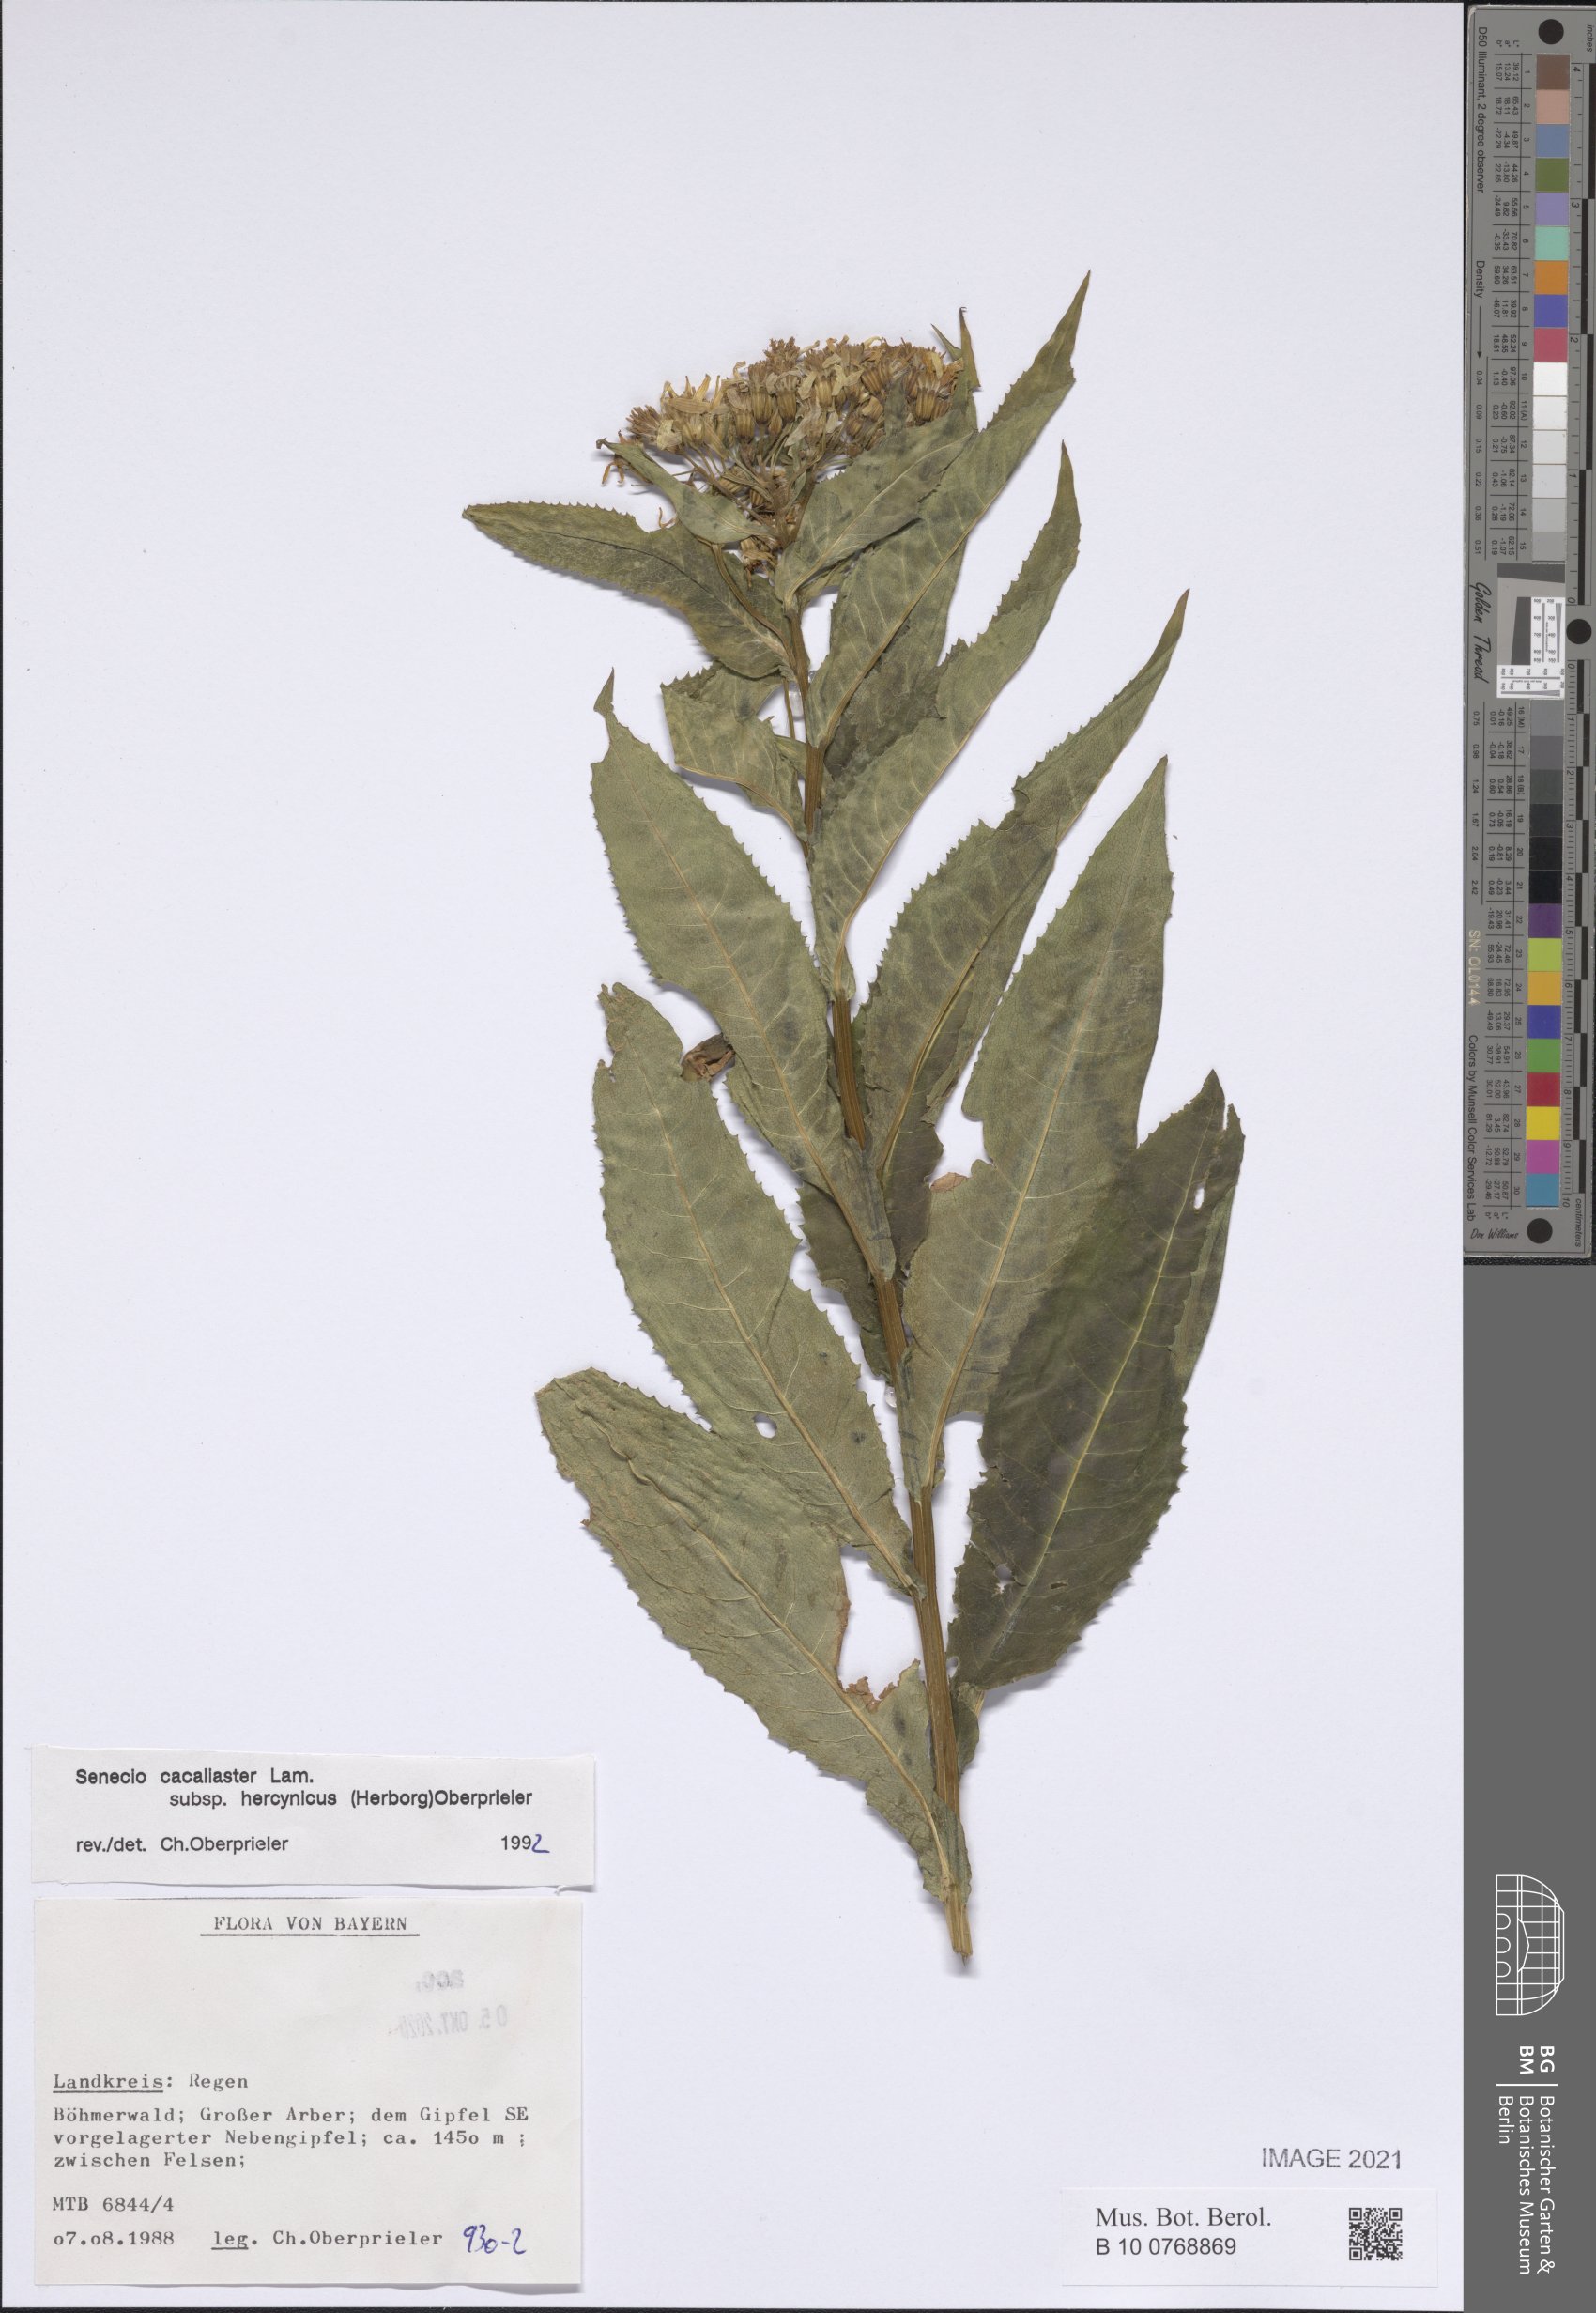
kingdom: Plantae
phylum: Tracheophyta
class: Magnoliopsida
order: Asterales
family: Asteraceae
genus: Senecio
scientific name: Senecio hercynicus
